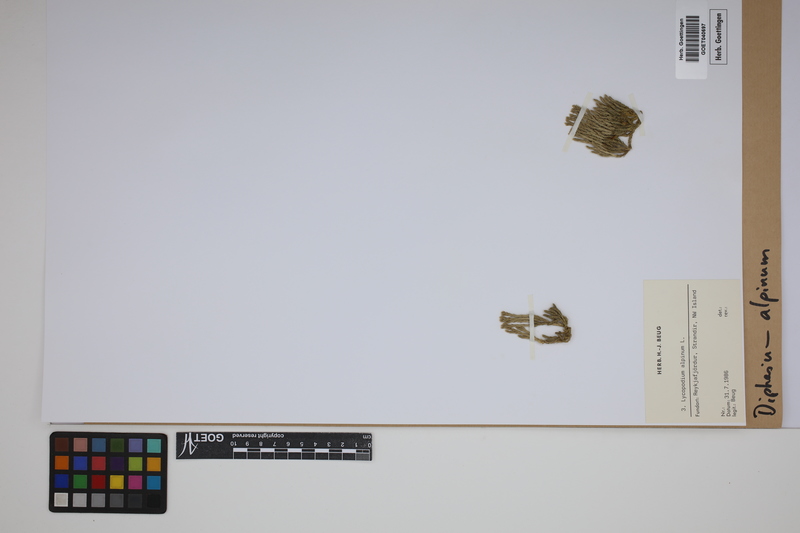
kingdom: Plantae
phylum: Tracheophyta
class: Lycopodiopsida
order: Lycopodiales
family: Lycopodiaceae
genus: Diphasiastrum
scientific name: Diphasiastrum alpinum
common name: Alpine clubmoss
